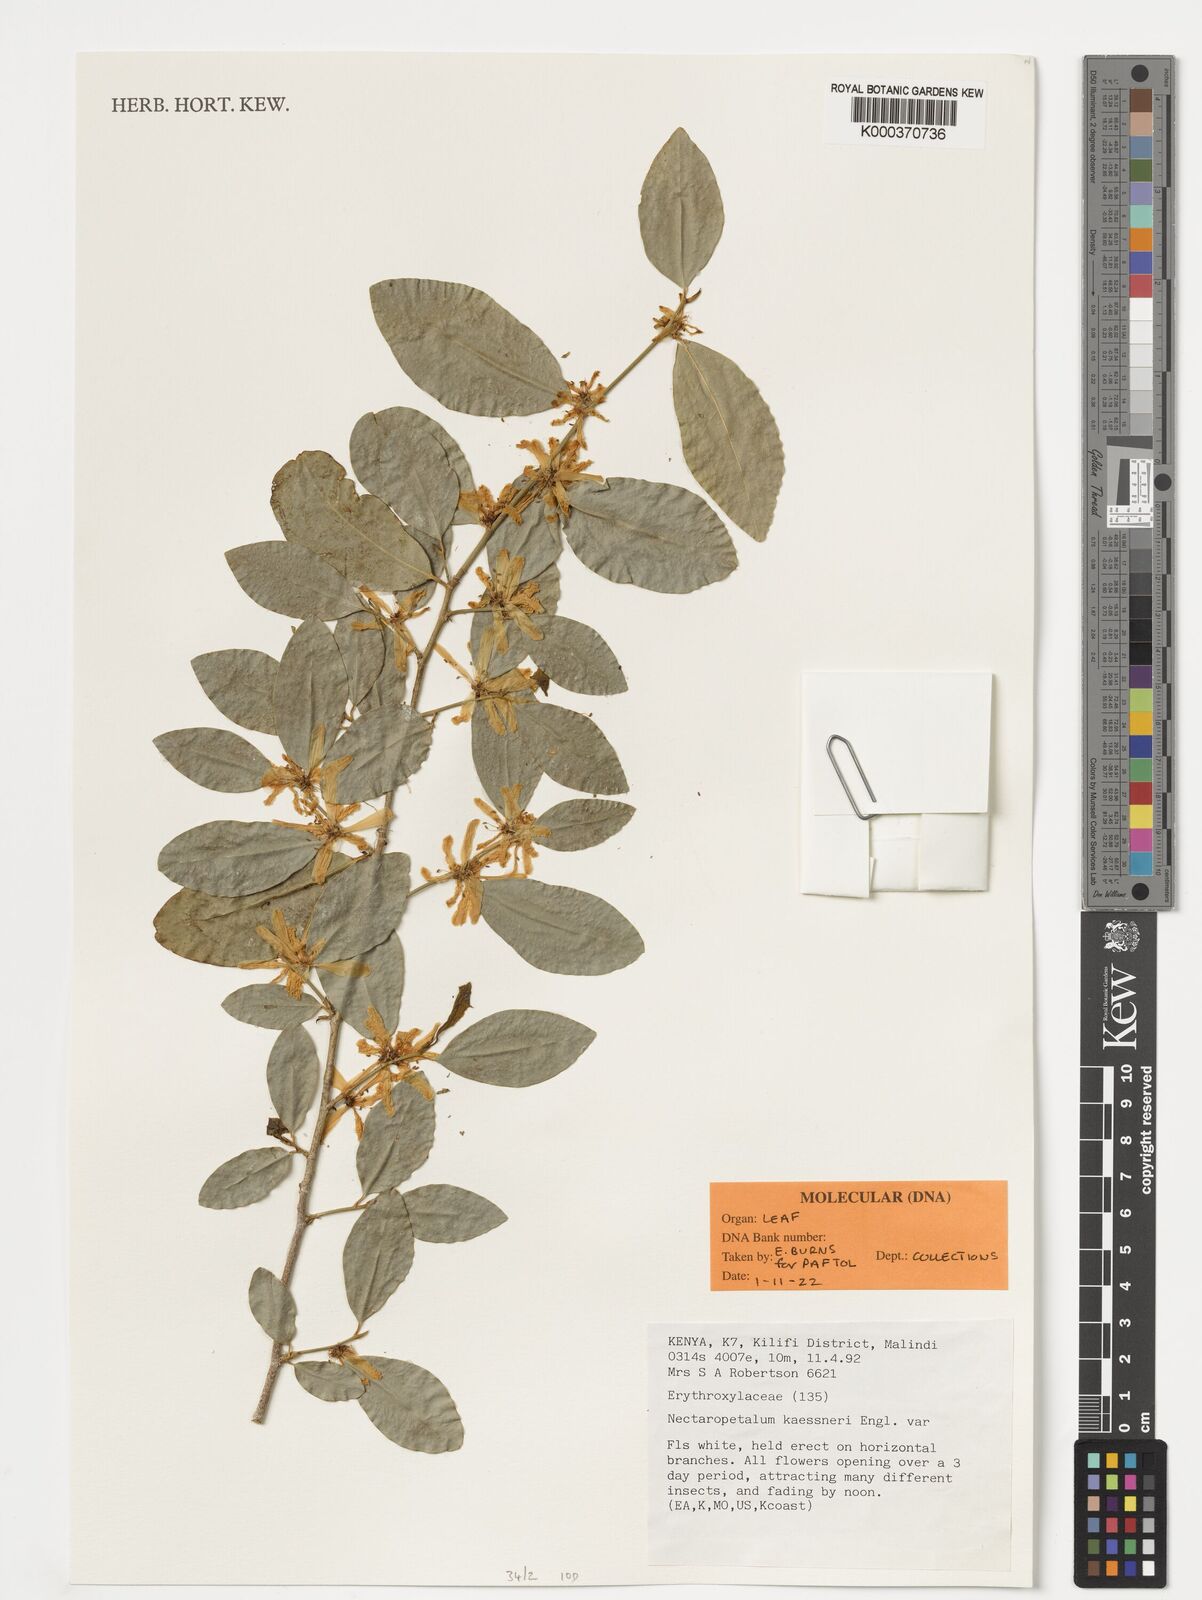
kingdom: Plantae
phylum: Tracheophyta
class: Magnoliopsida
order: Malpighiales
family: Erythroxylaceae
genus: Nectaropetalum
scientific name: Nectaropetalum kaessneri
